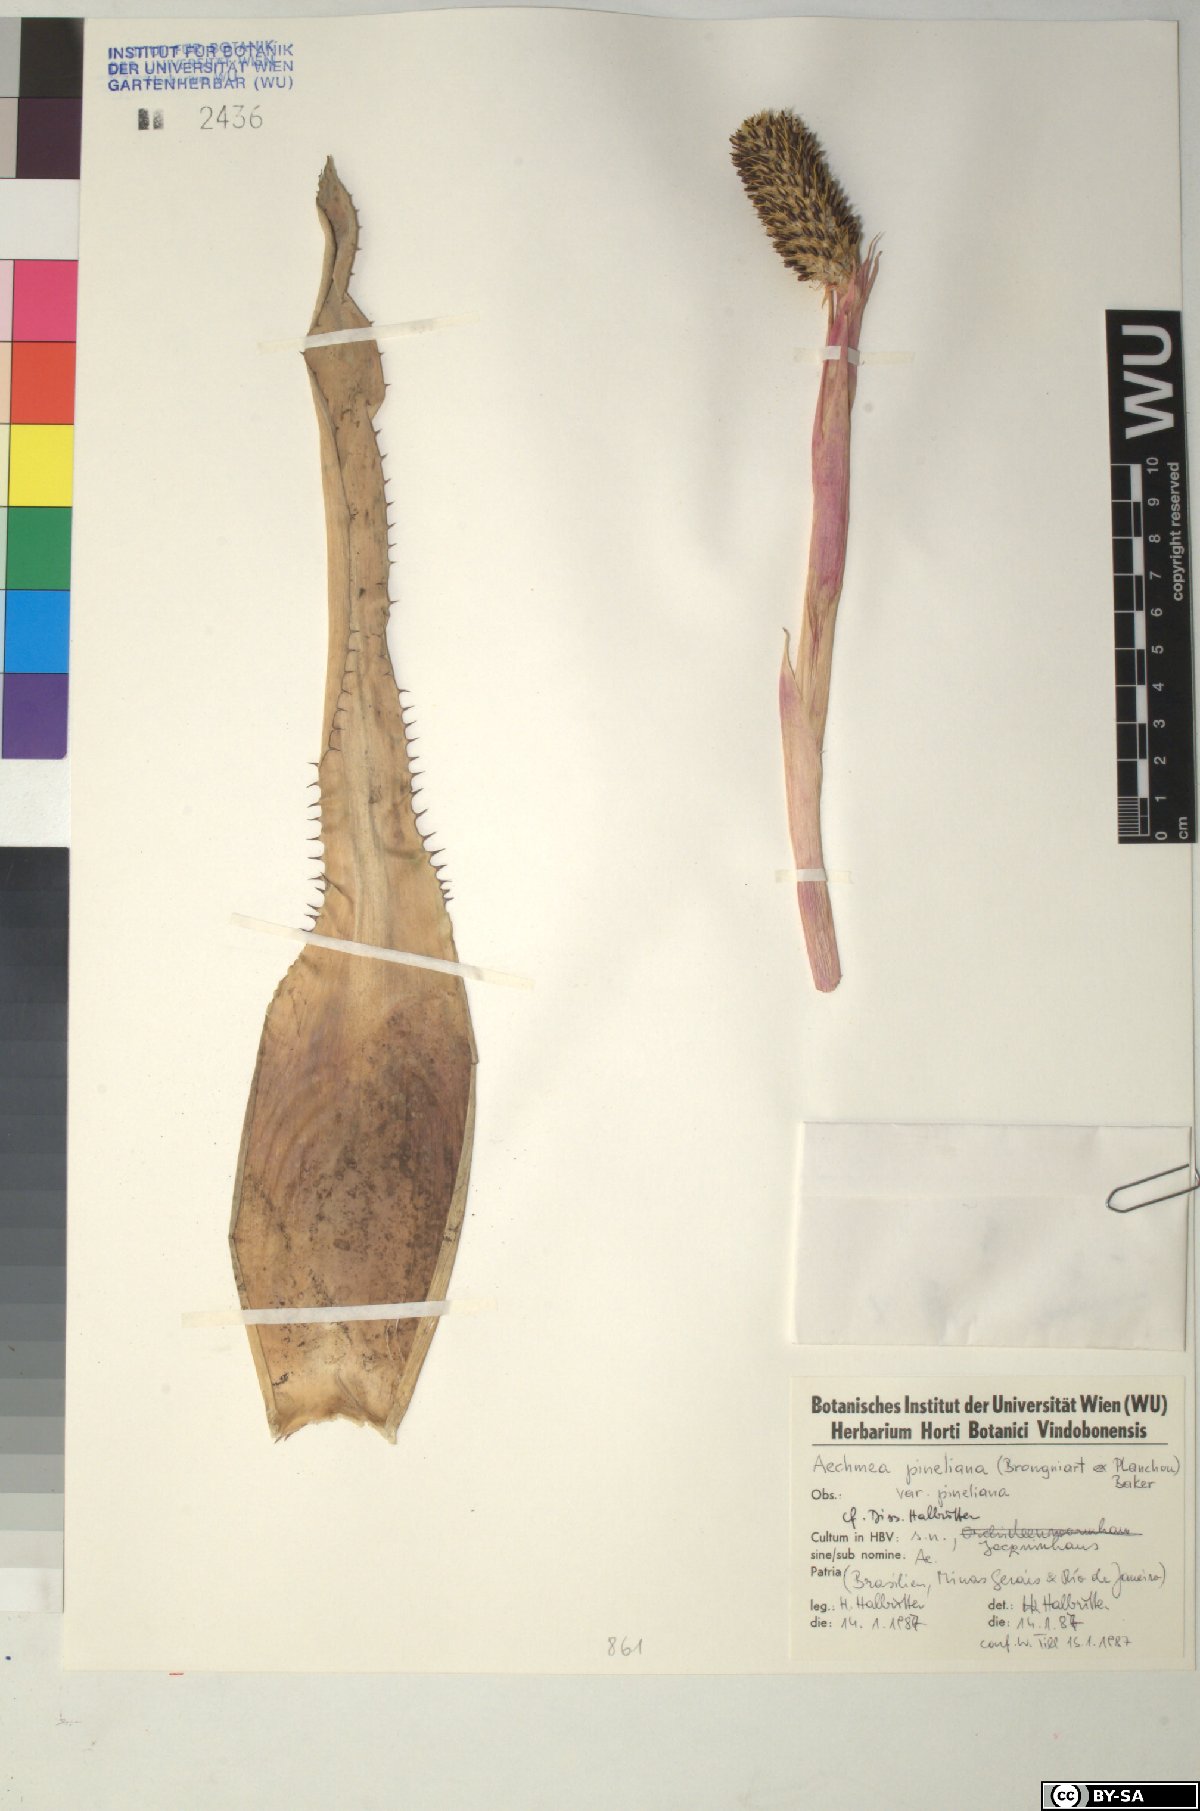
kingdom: Plantae
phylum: Tracheophyta
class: Liliopsida
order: Poales
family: Bromeliaceae
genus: Aechmea
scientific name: Aechmea pineliana
